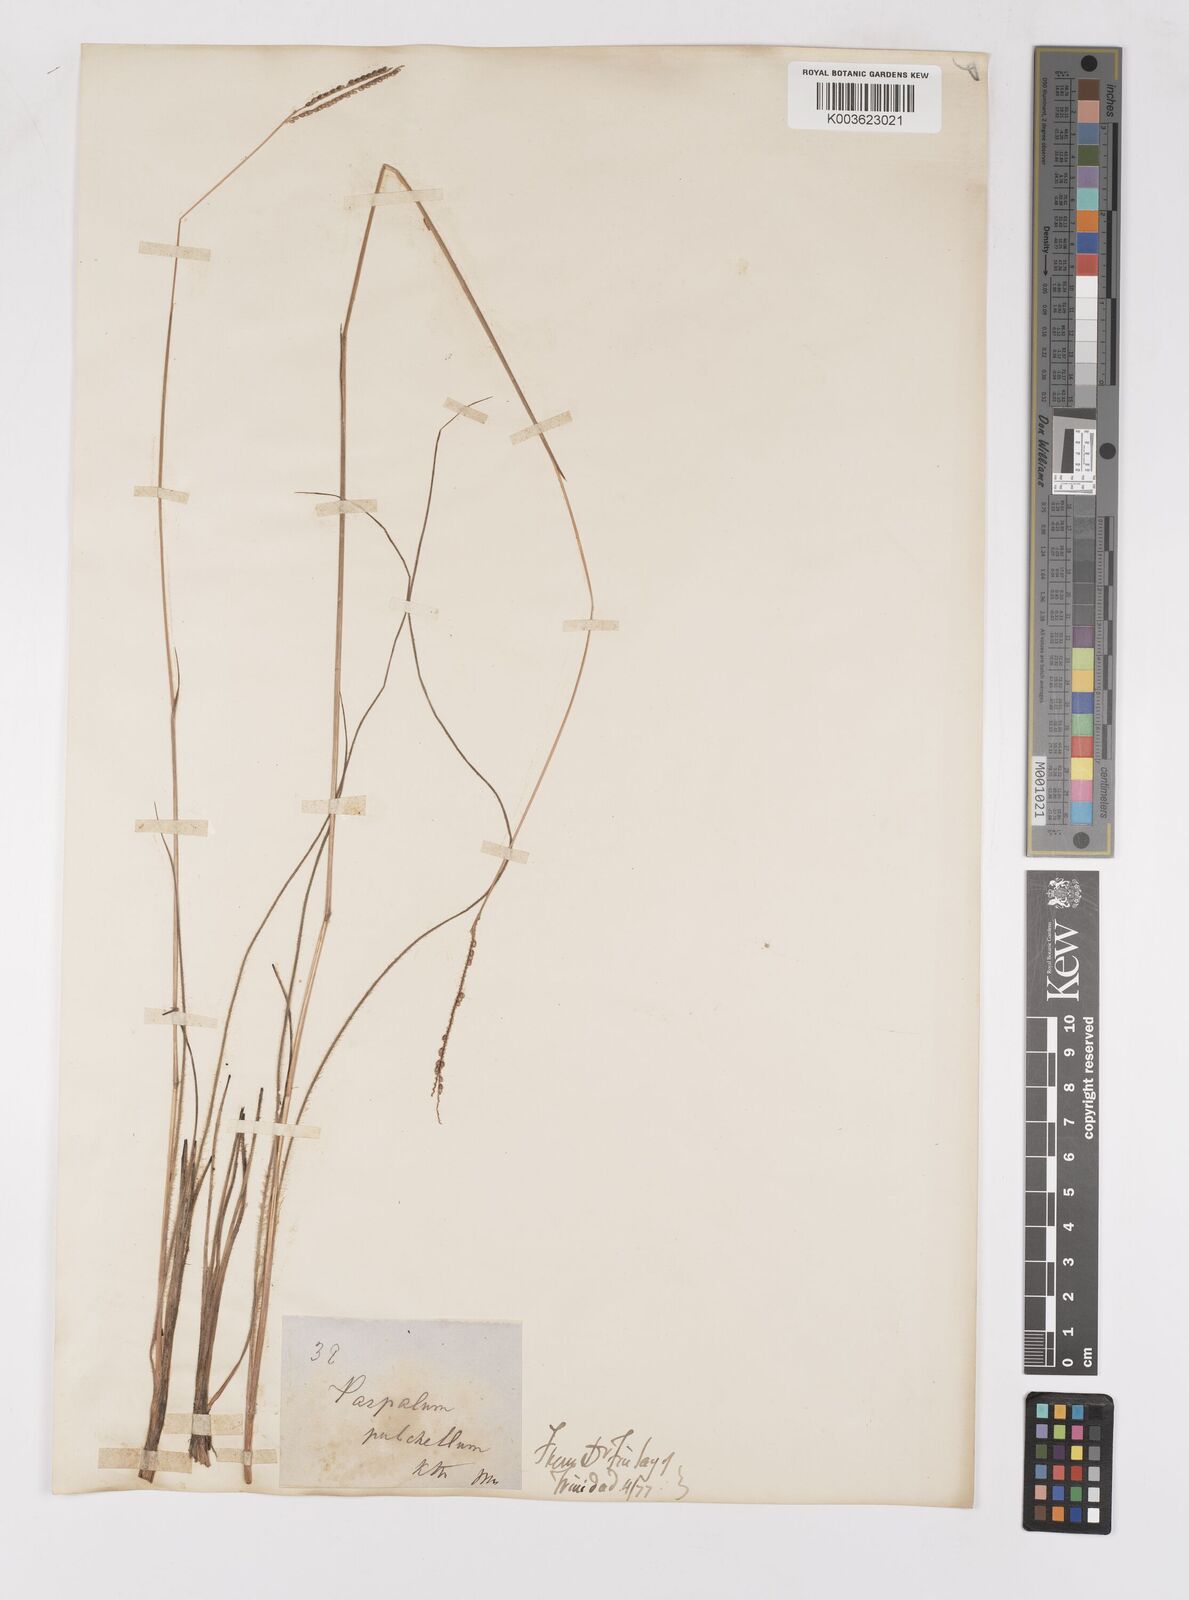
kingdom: Plantae
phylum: Tracheophyta
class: Liliopsida
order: Poales
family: Poaceae
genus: Paspalum
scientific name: Paspalum pulchellum
